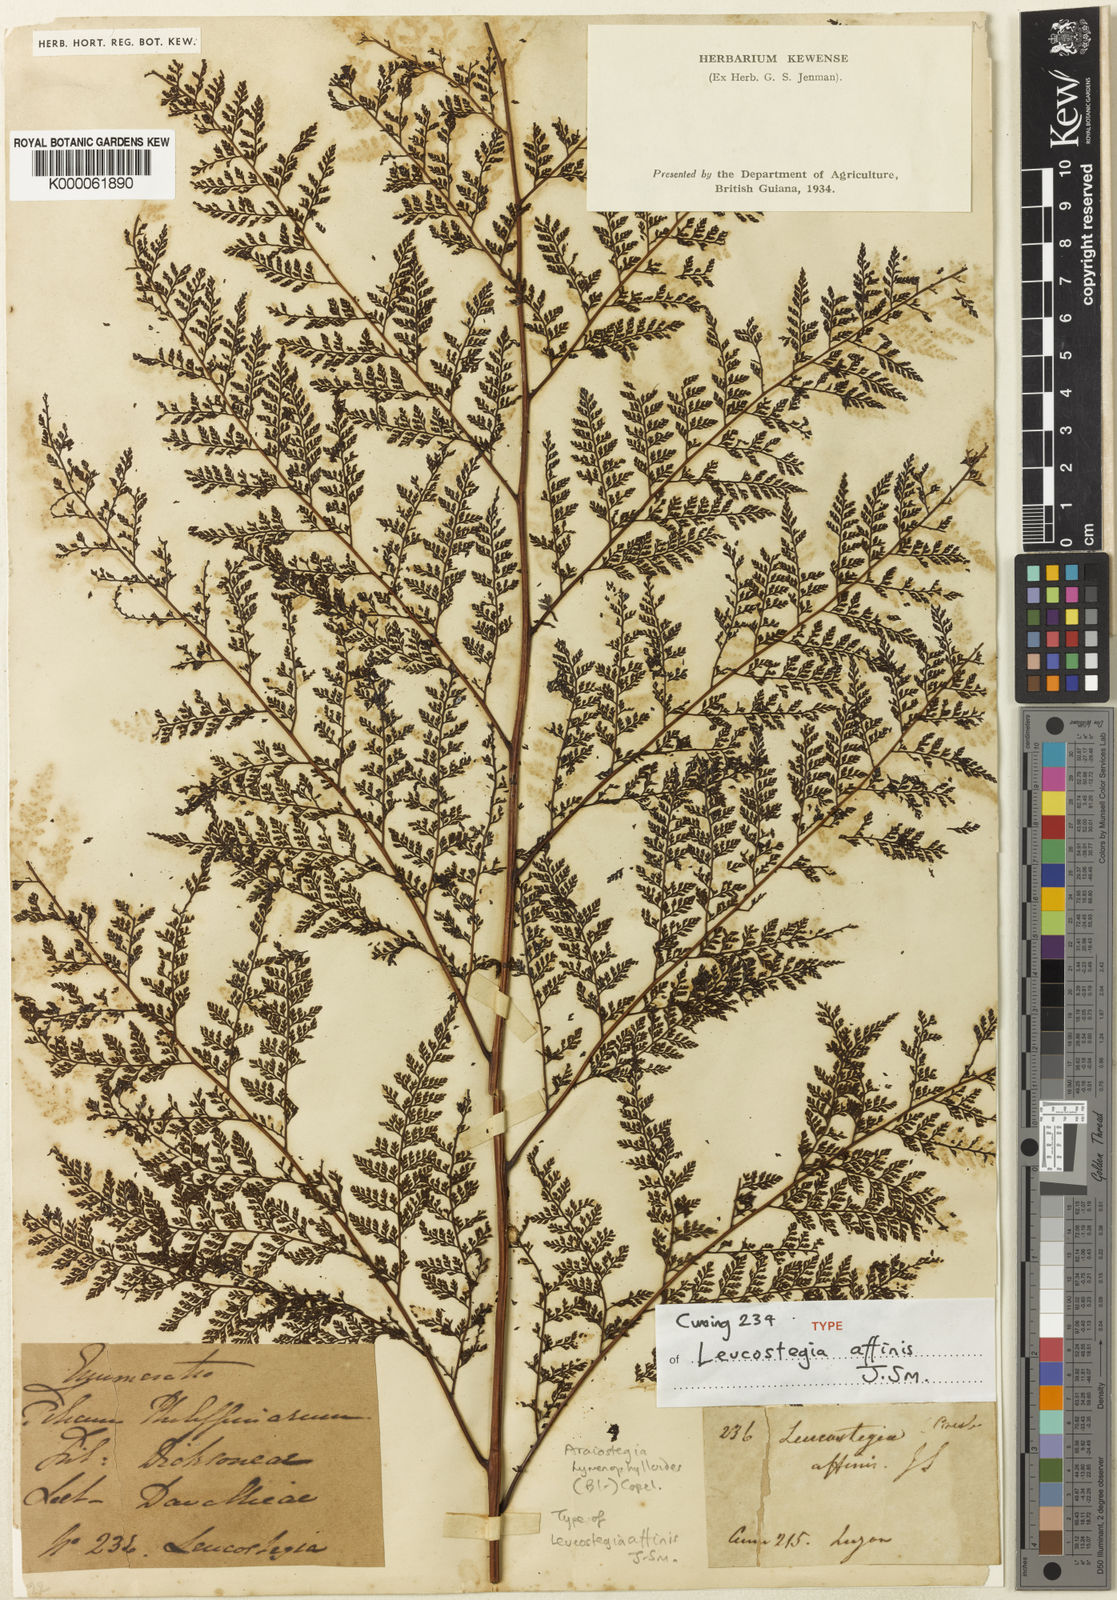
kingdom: Plantae
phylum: Tracheophyta
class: Polypodiopsida
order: Polypodiales
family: Hypodematiaceae
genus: Leucostegia
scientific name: Leucostegia immersa
